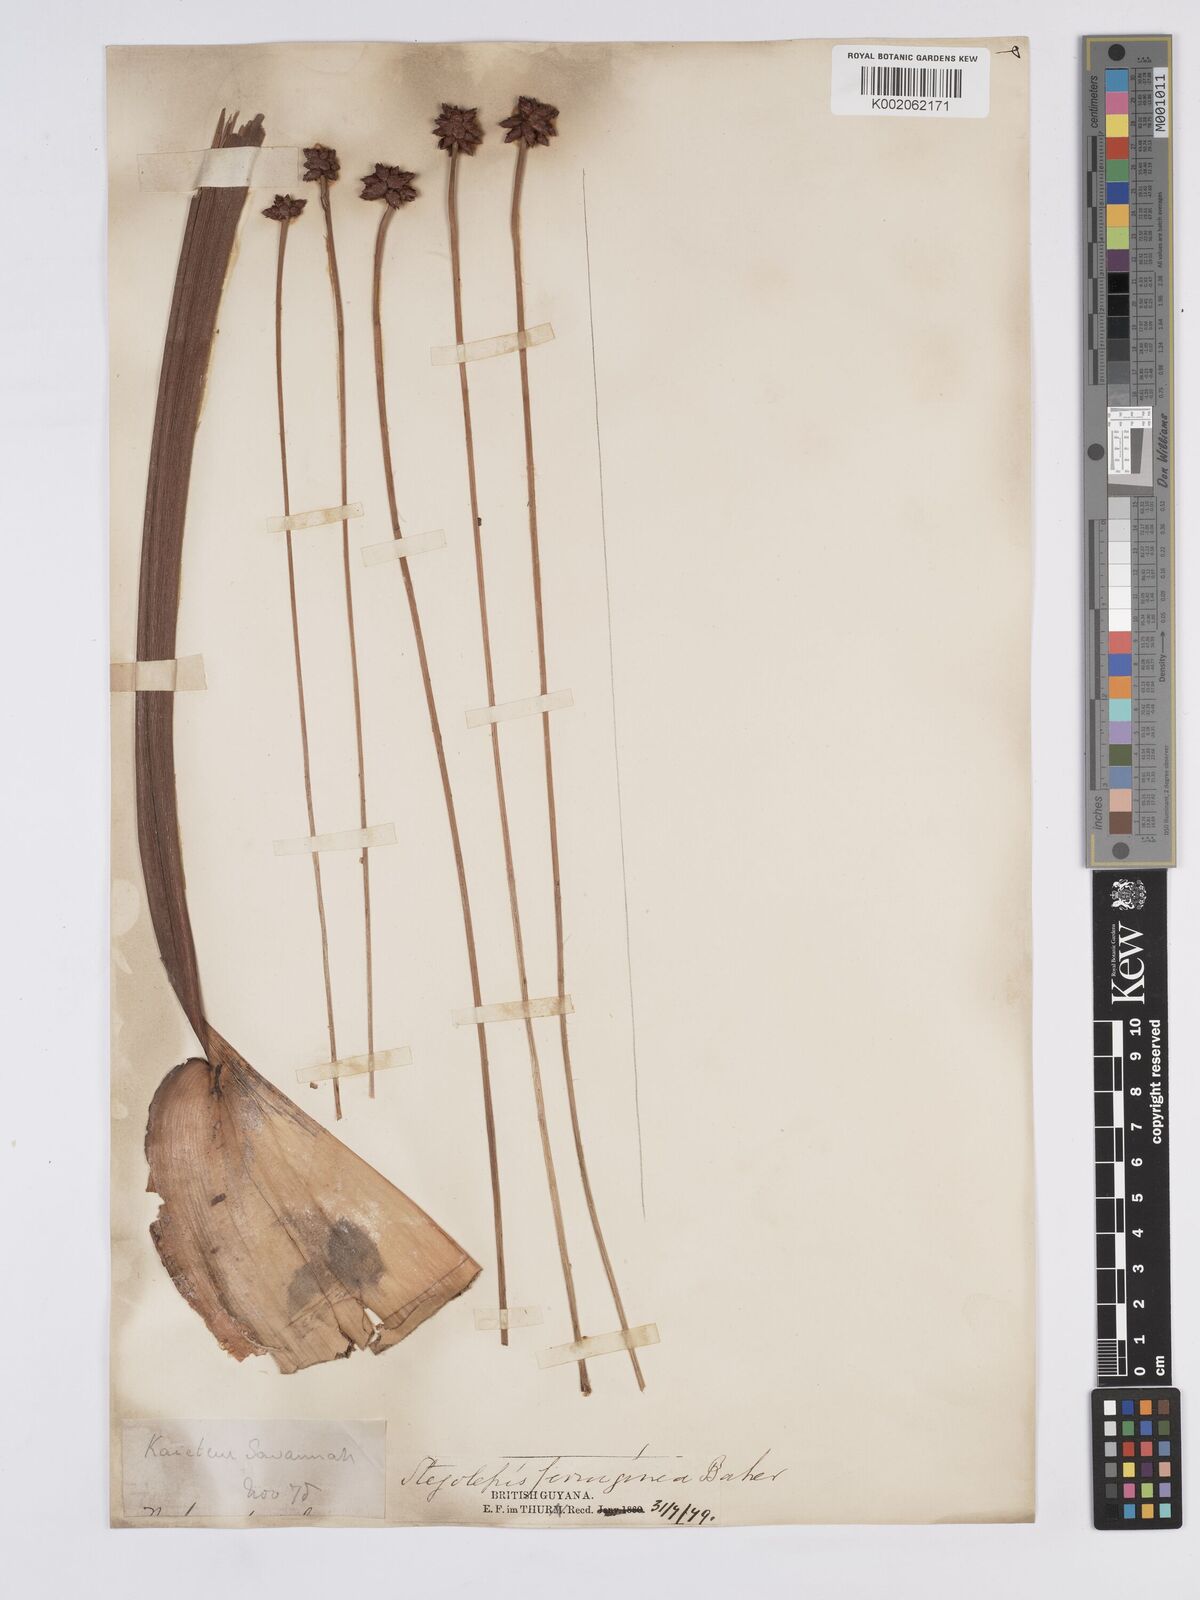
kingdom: Plantae
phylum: Tracheophyta
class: Liliopsida
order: Poales
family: Rapateaceae
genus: Stegolepis
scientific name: Stegolepis ferruginea
